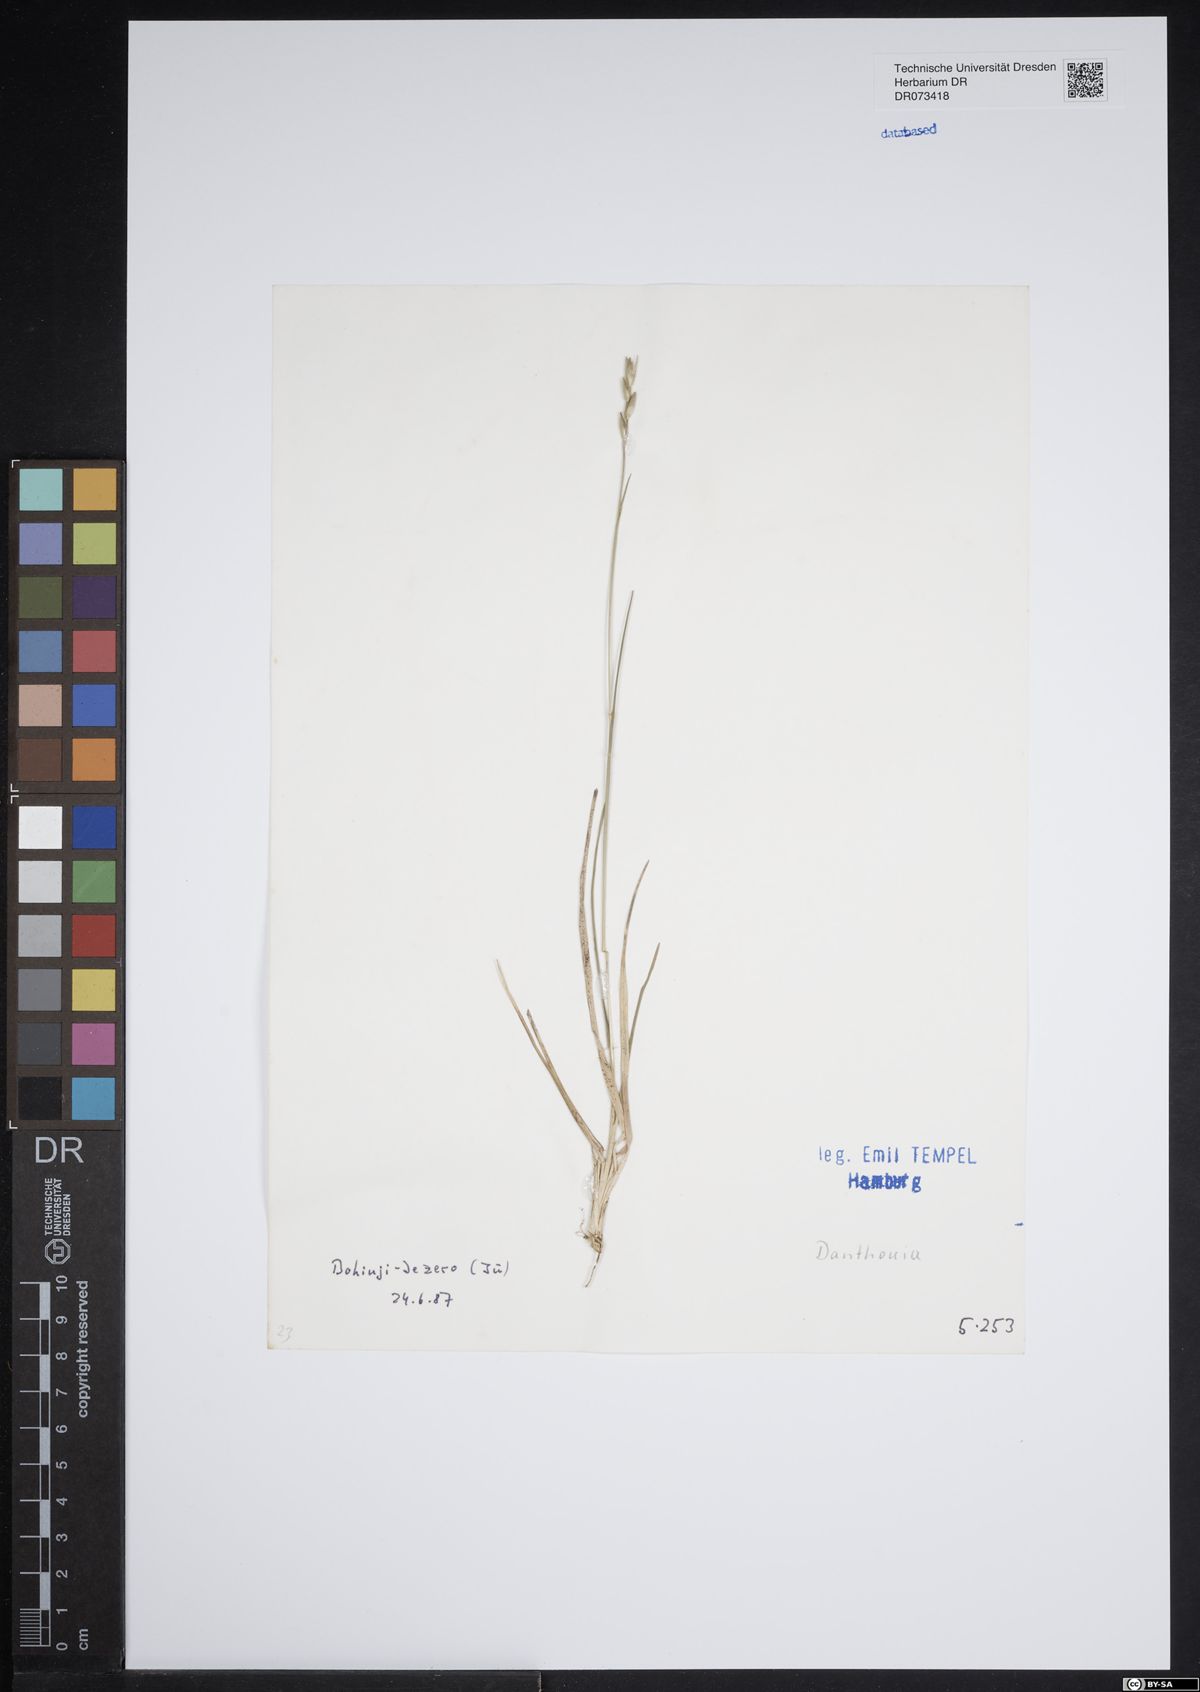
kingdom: Plantae
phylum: Tracheophyta
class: Liliopsida
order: Poales
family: Poaceae
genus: Danthonia
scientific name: Danthonia
